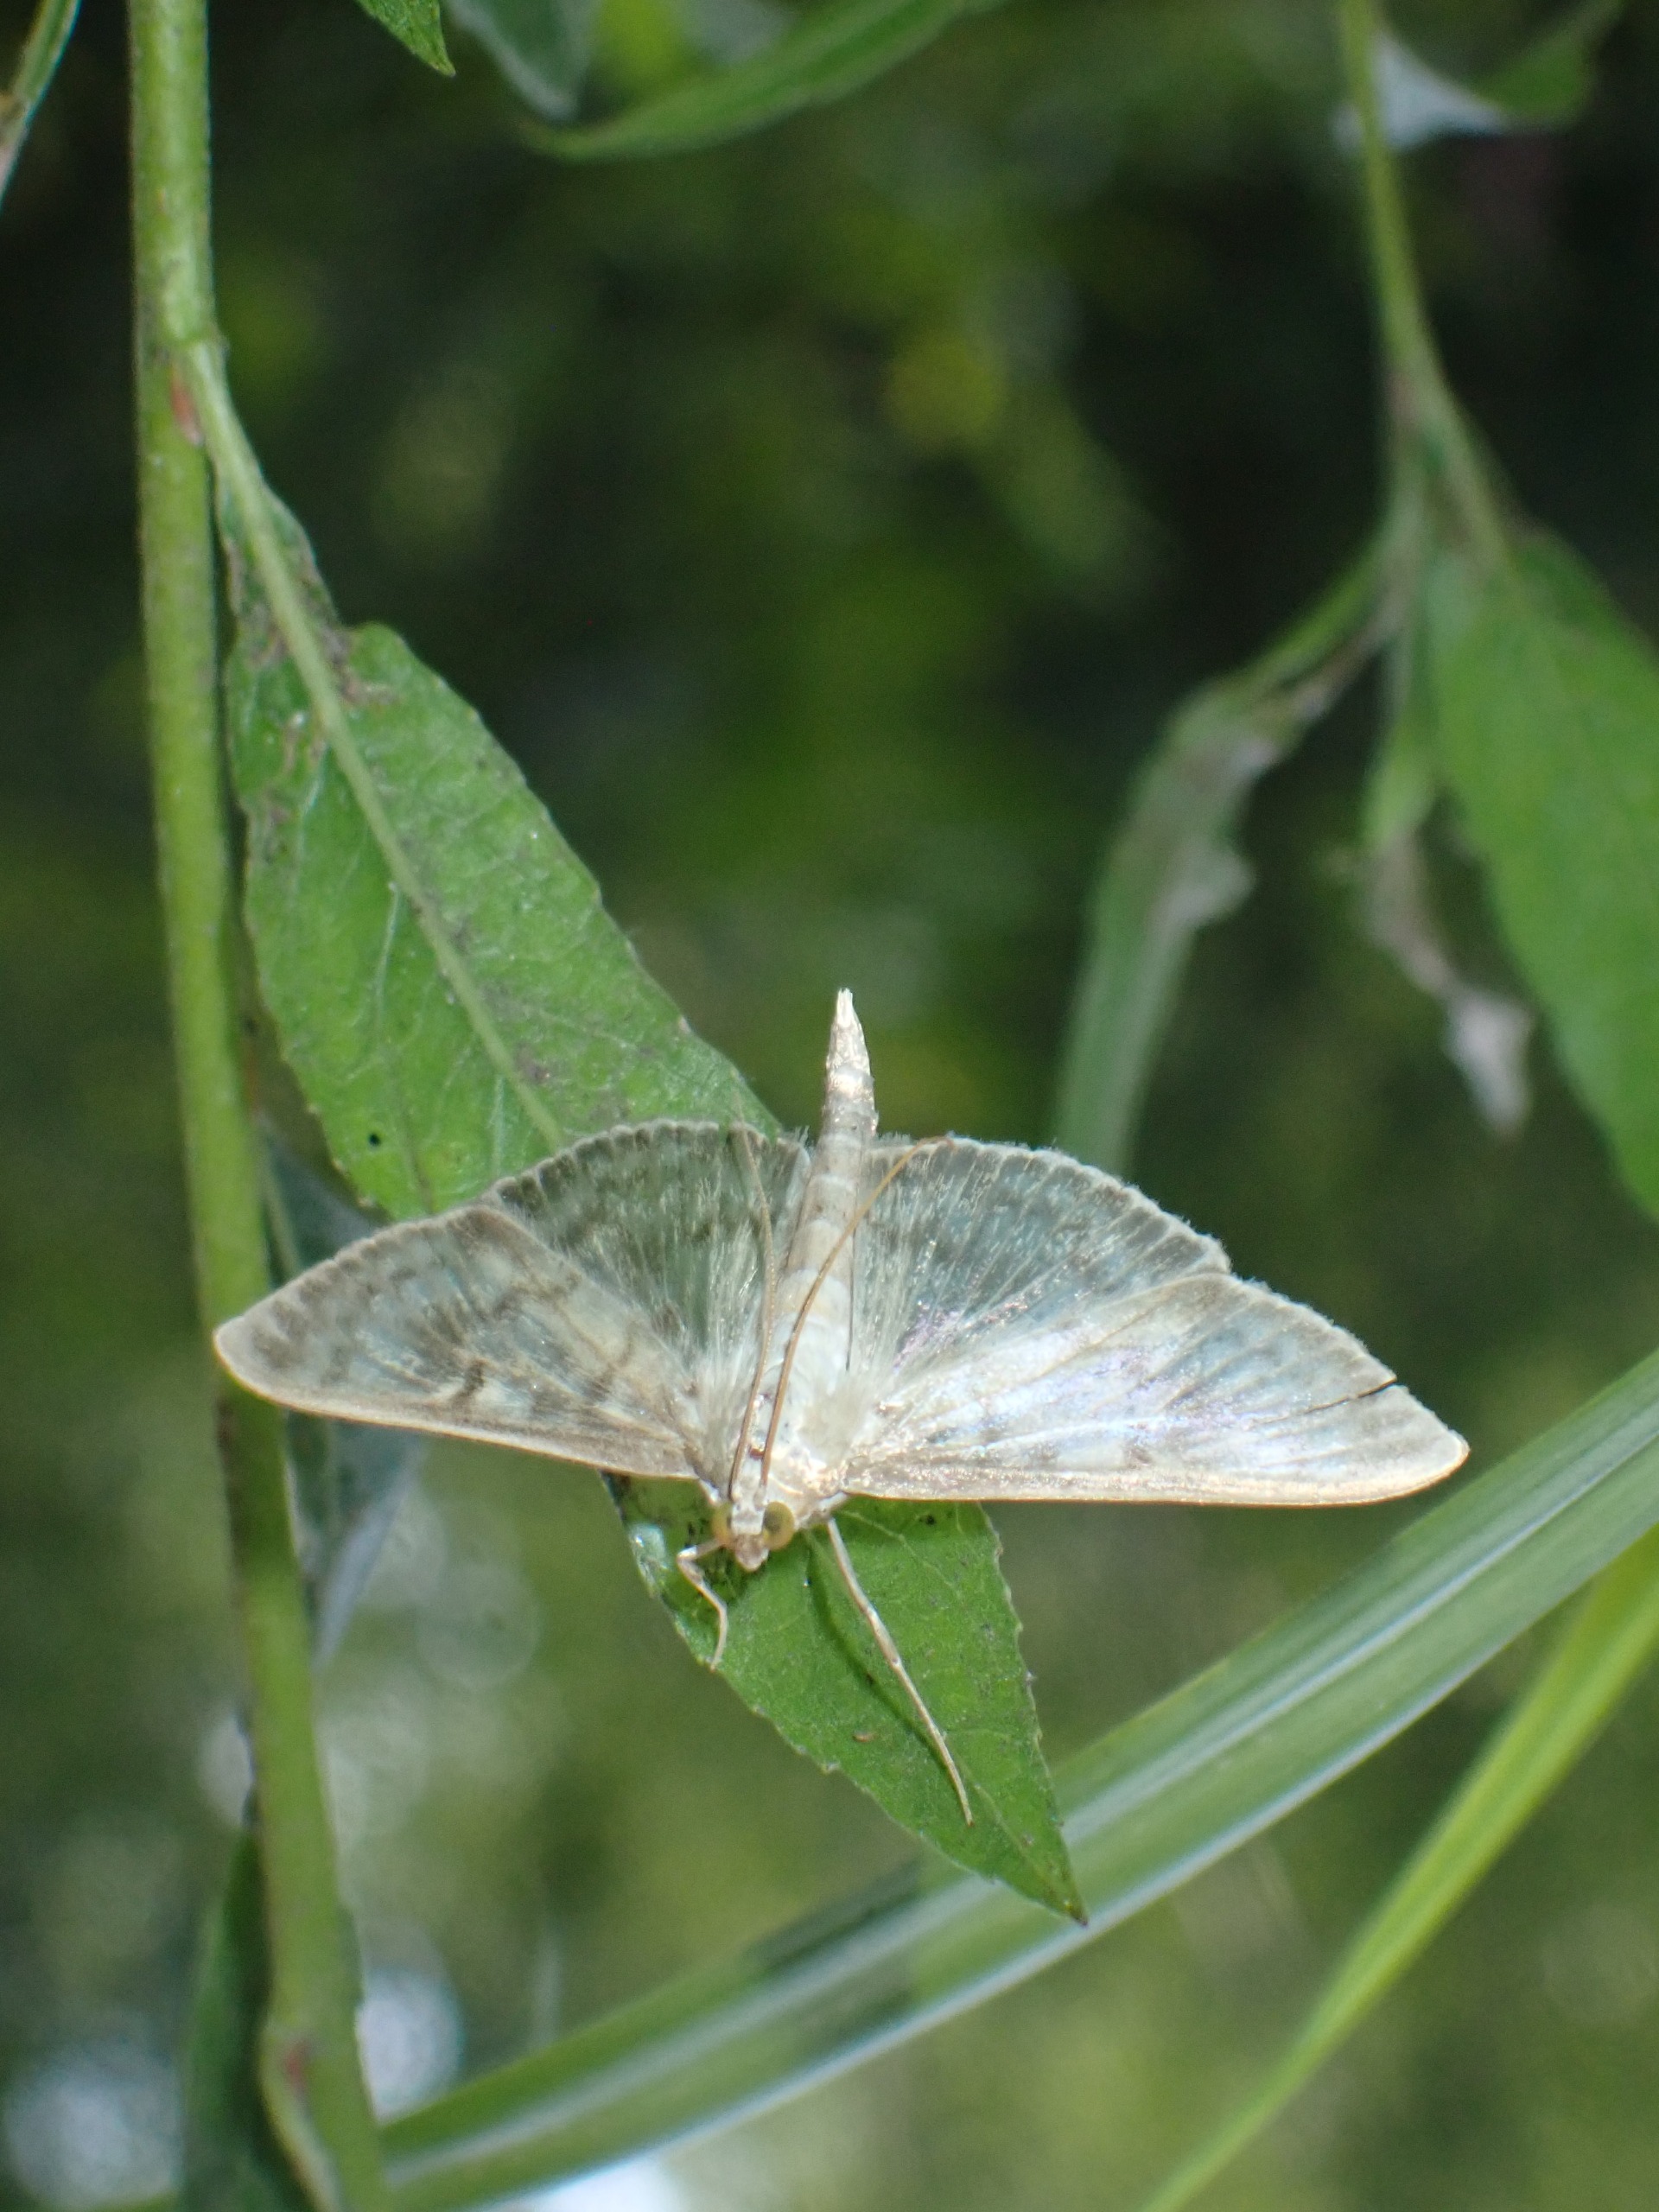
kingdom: Animalia
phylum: Arthropoda
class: Insecta
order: Lepidoptera
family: Crambidae
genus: Patania
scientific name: Patania ruralis
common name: Perlemorshalvmøl
